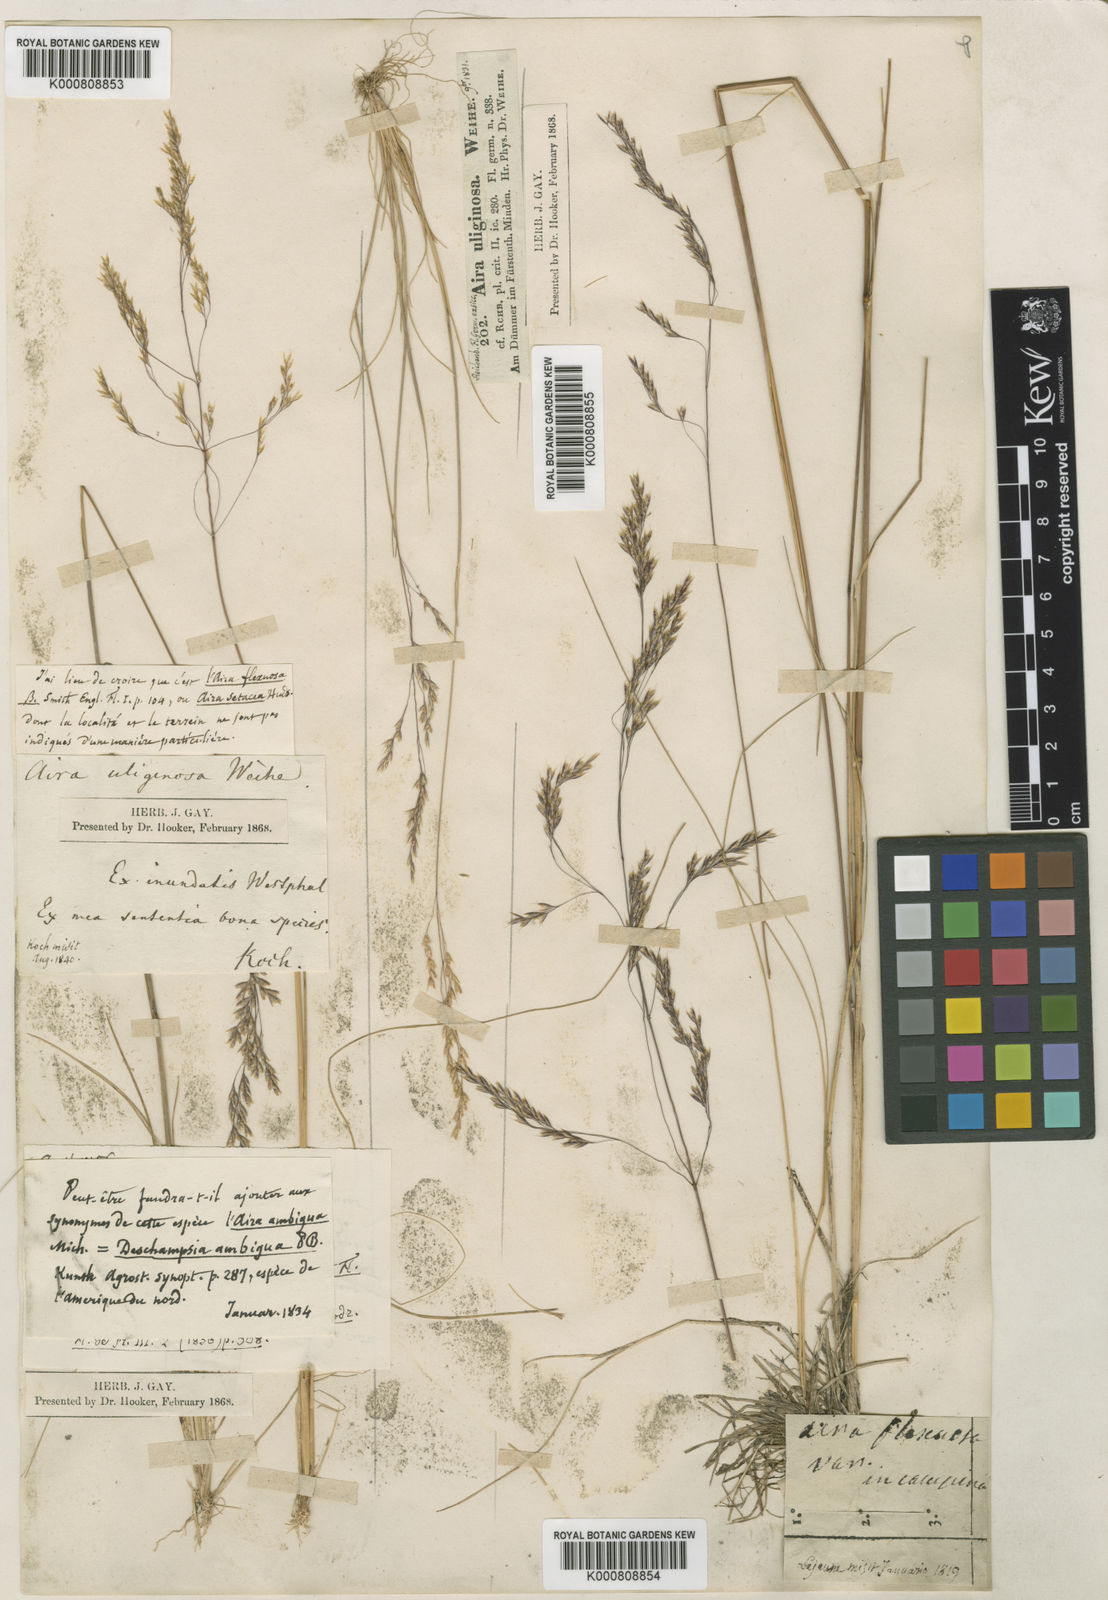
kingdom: Plantae
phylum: Tracheophyta
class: Liliopsida
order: Poales
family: Poaceae
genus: Deschampsia
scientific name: Deschampsia setacea
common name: Bog hair-grass
